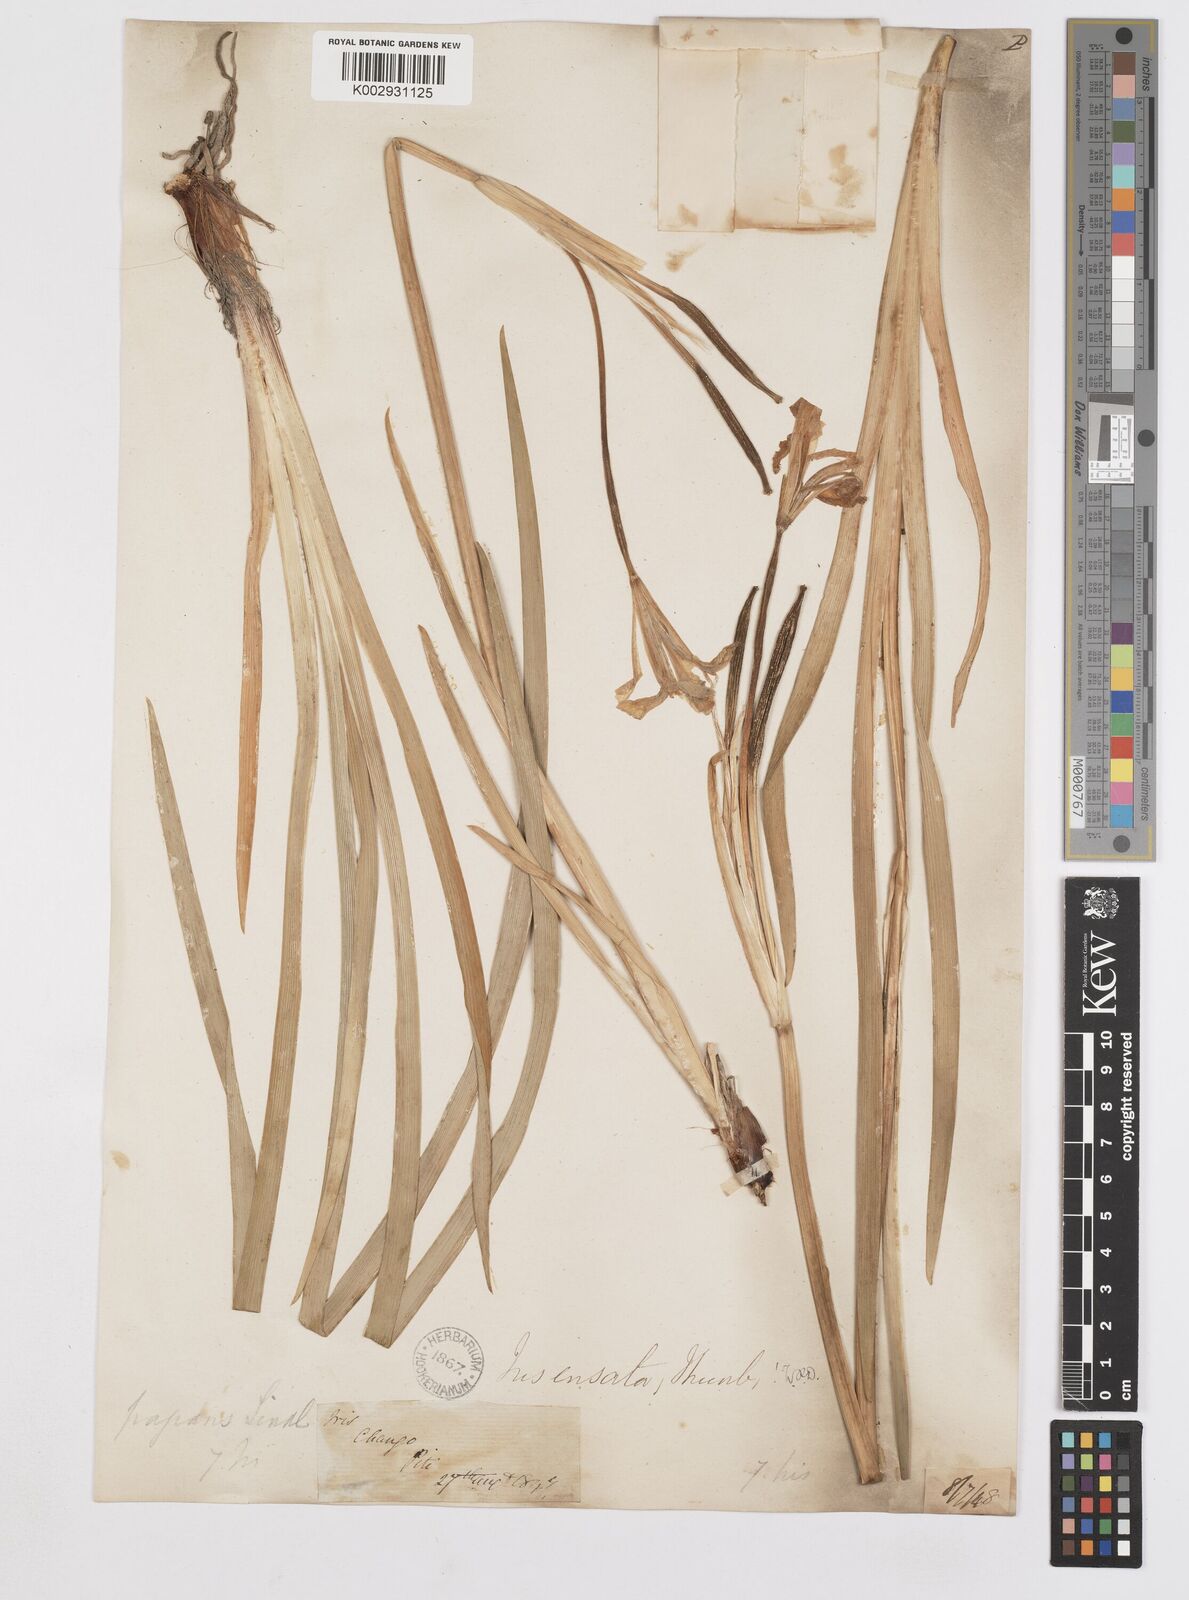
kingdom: Plantae
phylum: Tracheophyta
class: Liliopsida
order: Asparagales
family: Iridaceae
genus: Iris
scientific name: Iris ensata
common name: Beaked iris
